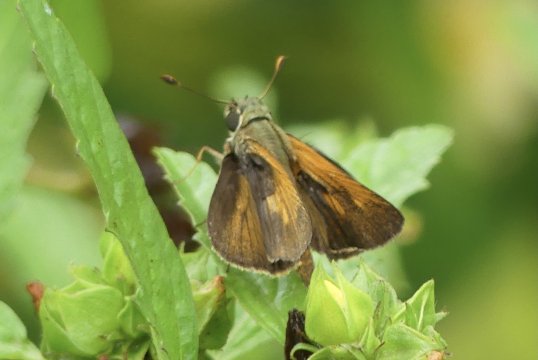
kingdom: Animalia
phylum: Arthropoda
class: Insecta
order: Lepidoptera
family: Hesperiidae
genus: Wallengrenia
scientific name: Wallengrenia
